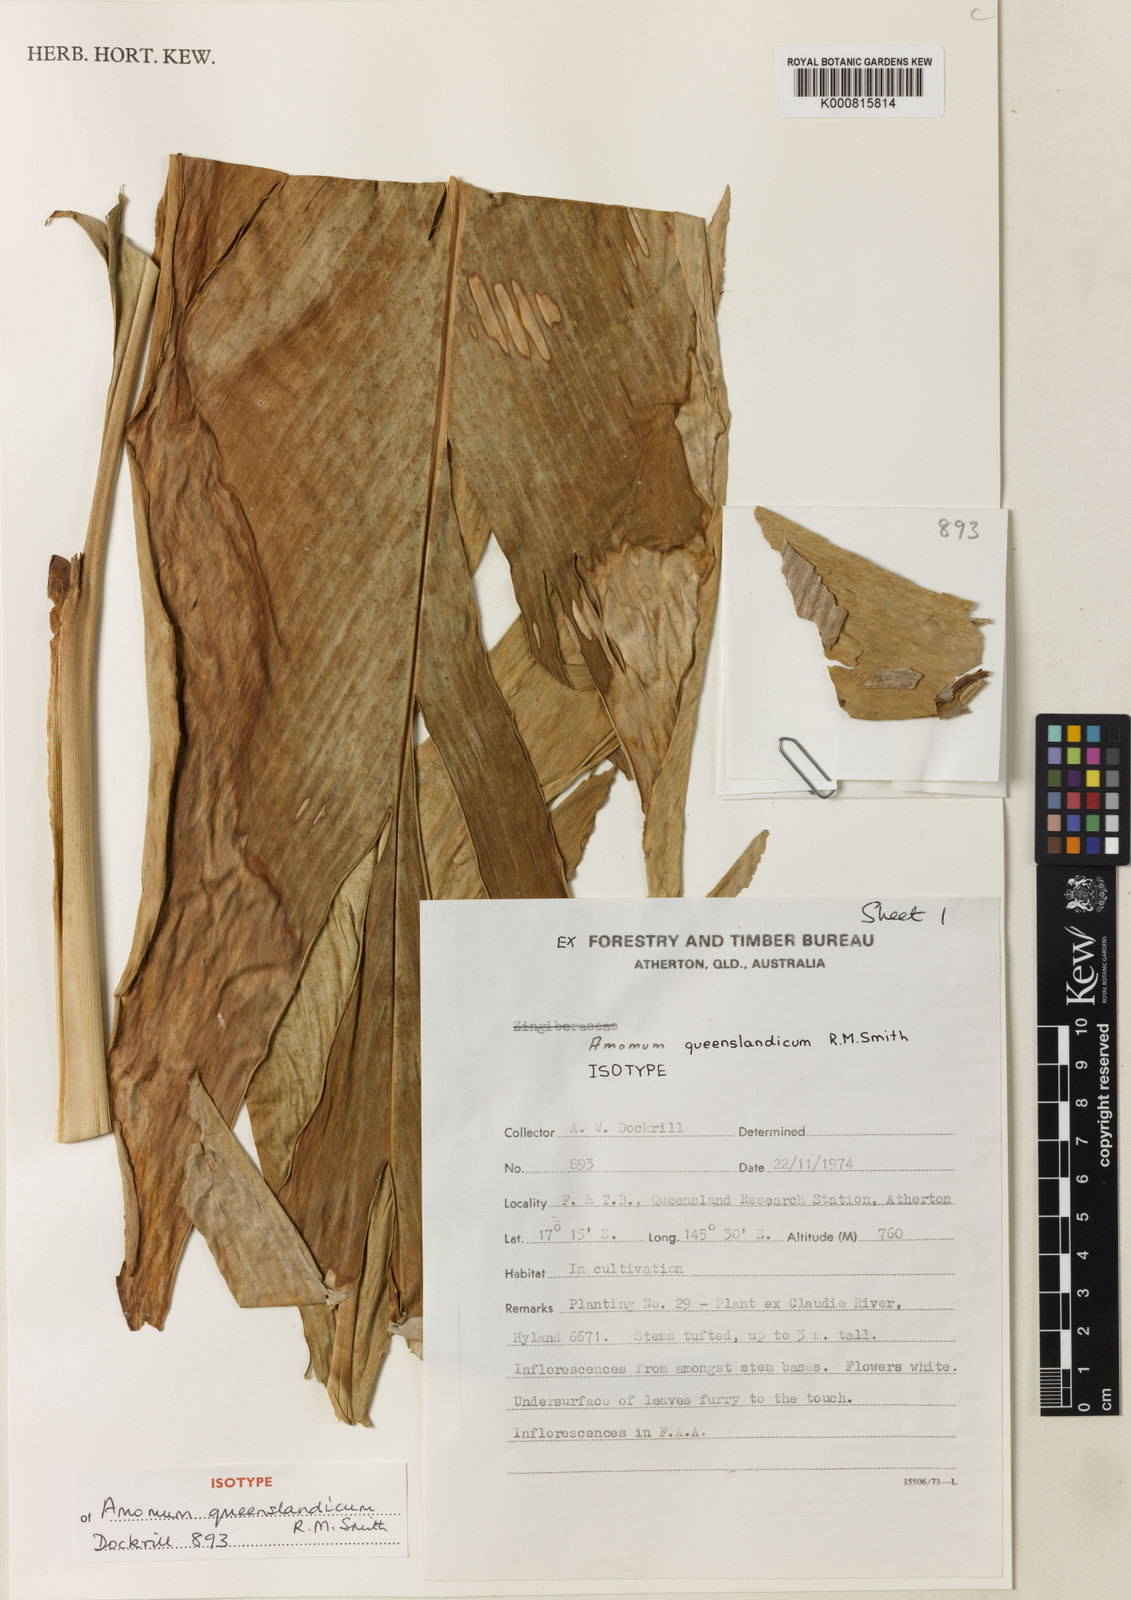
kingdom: Plantae
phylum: Tracheophyta
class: Liliopsida
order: Zingiberales
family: Zingiberaceae
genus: Amomum
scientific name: Amomum queenslandicum
